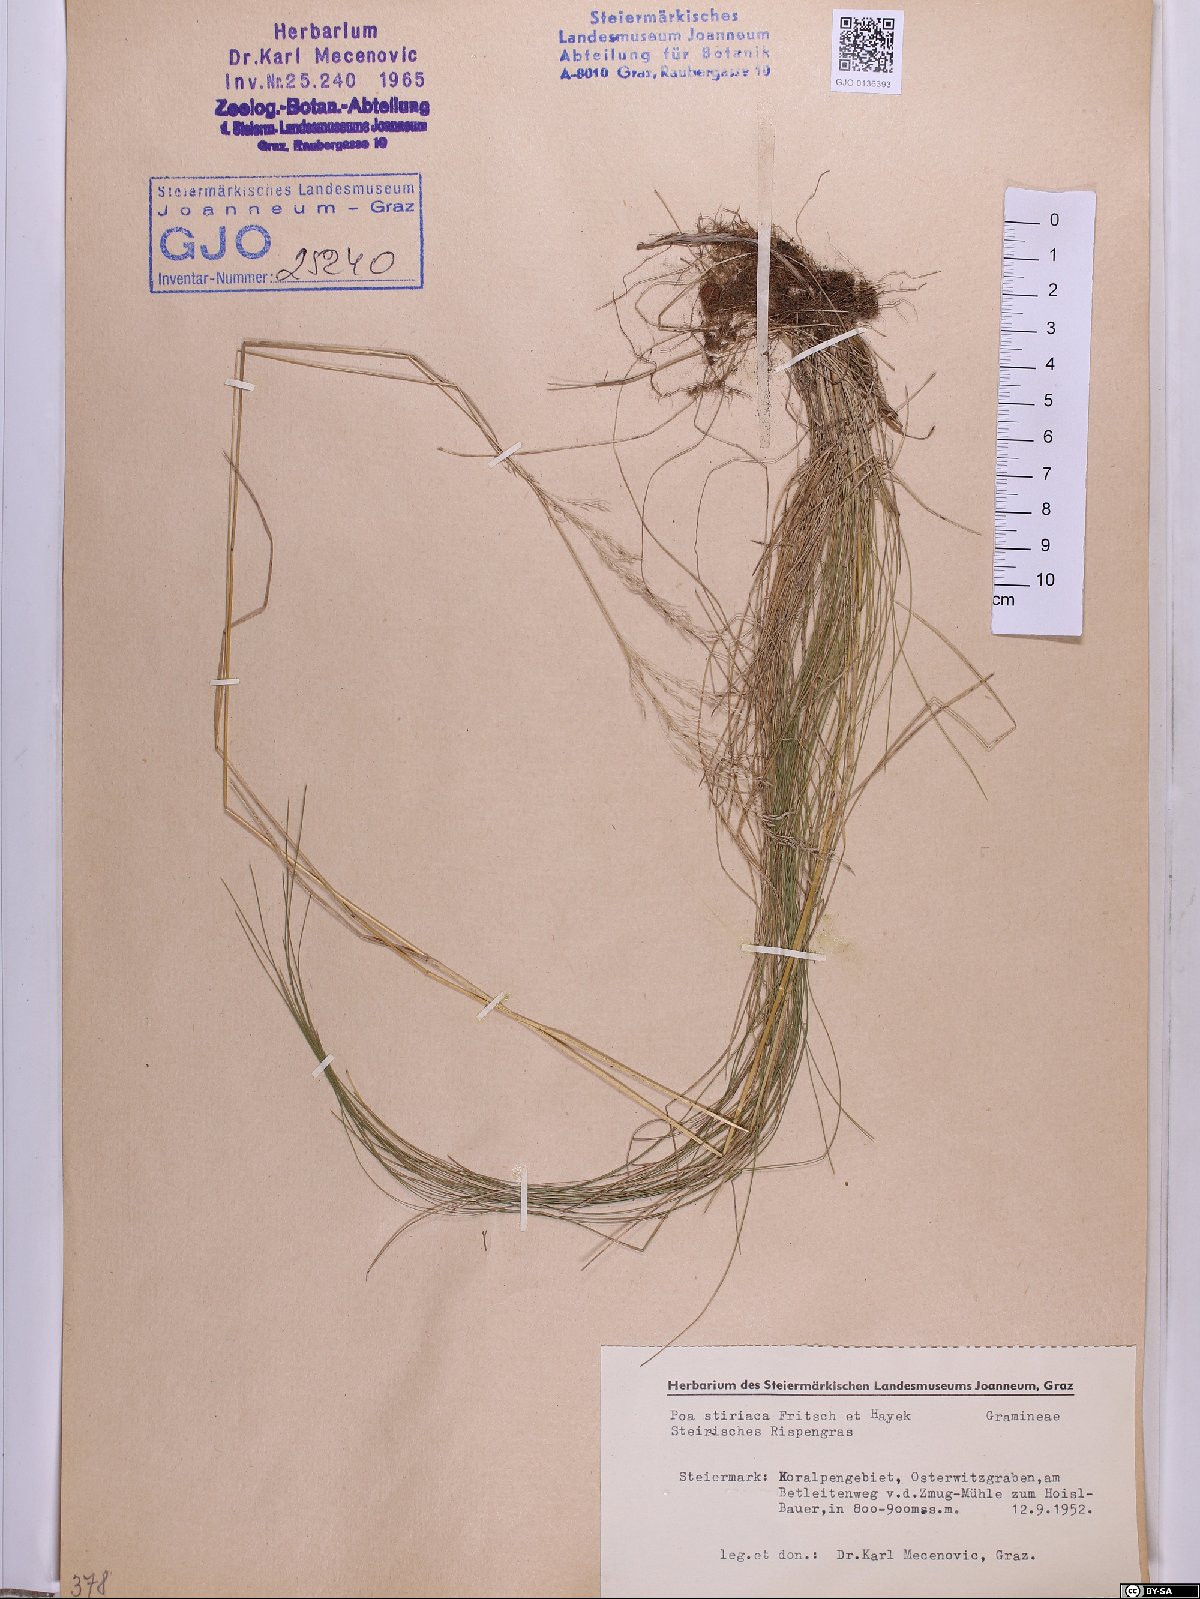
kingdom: Plantae
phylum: Tracheophyta
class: Liliopsida
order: Poales
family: Poaceae
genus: Poa
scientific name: Poa stiriaca
